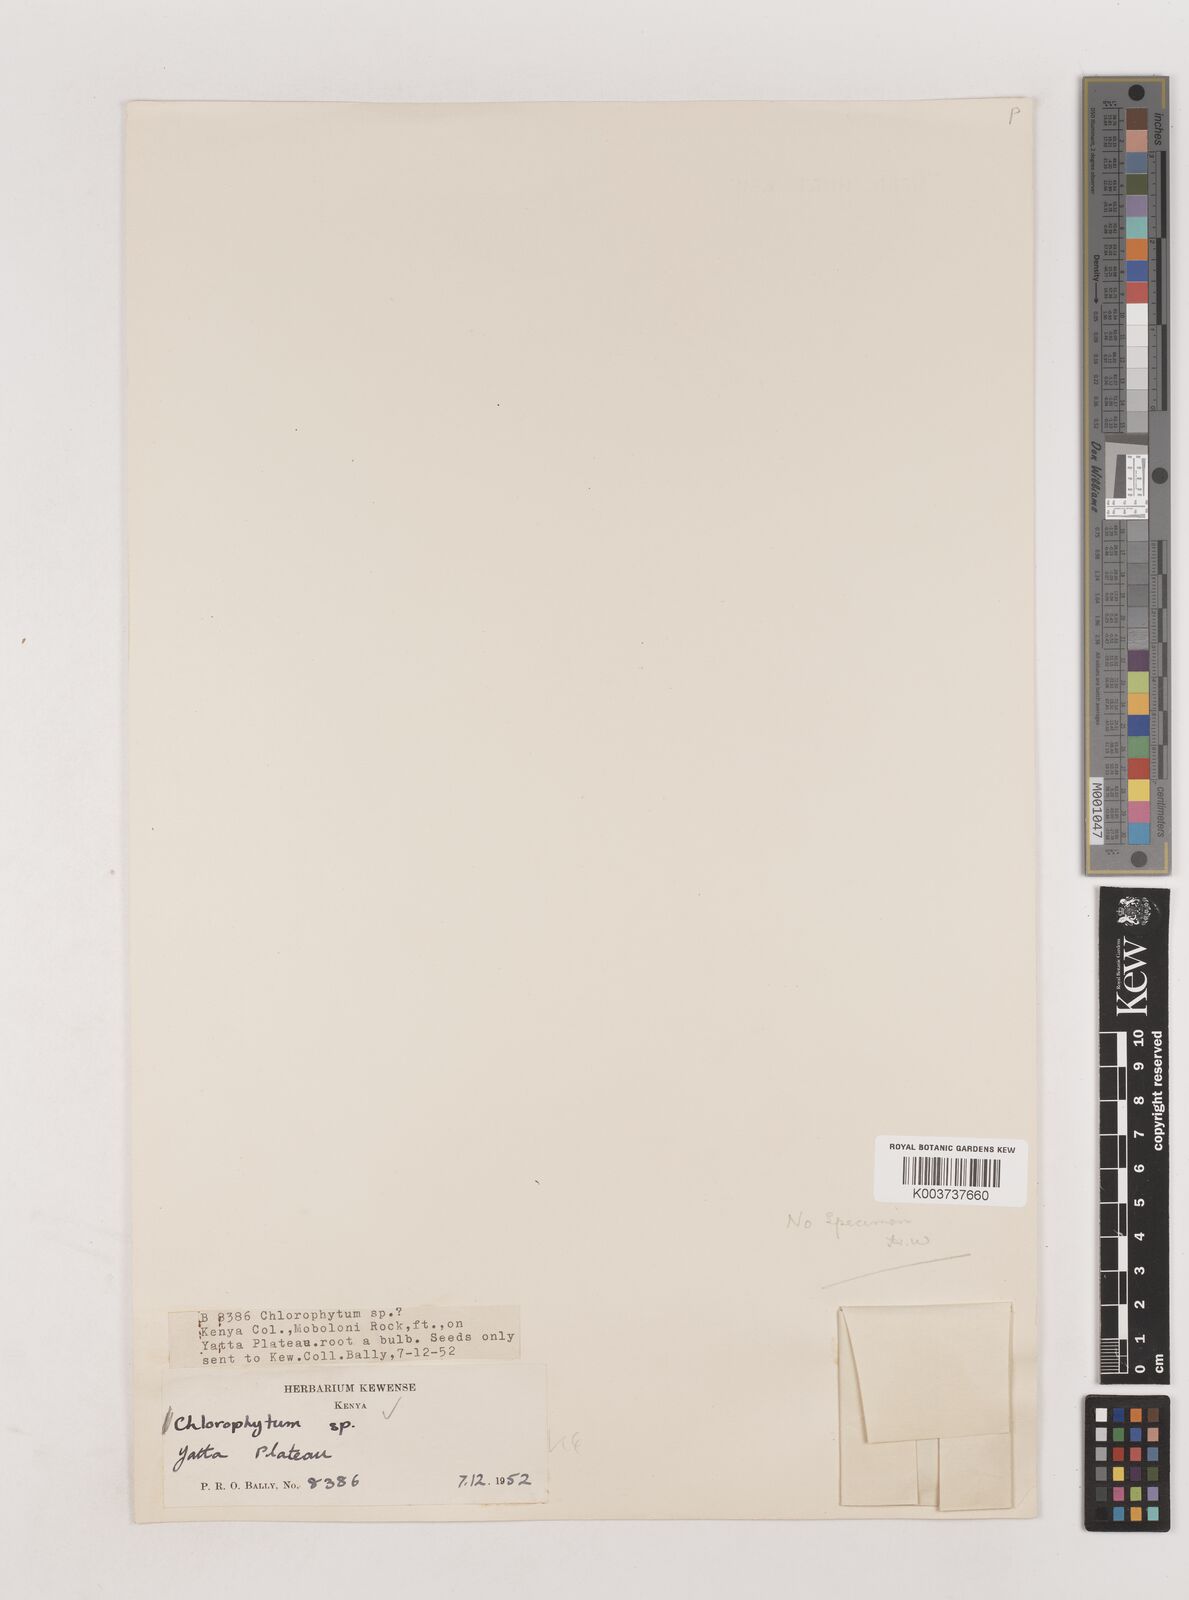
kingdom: Plantae
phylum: Tracheophyta
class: Liliopsida
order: Asparagales
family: Asparagaceae
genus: Chlorophytum
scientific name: Chlorophytum viridescens
